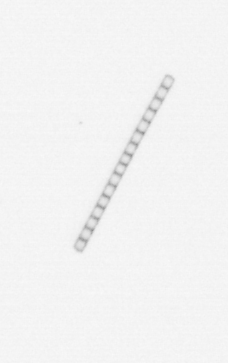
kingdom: Chromista
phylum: Ochrophyta
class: Bacillariophyceae
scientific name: Bacillariophyceae
